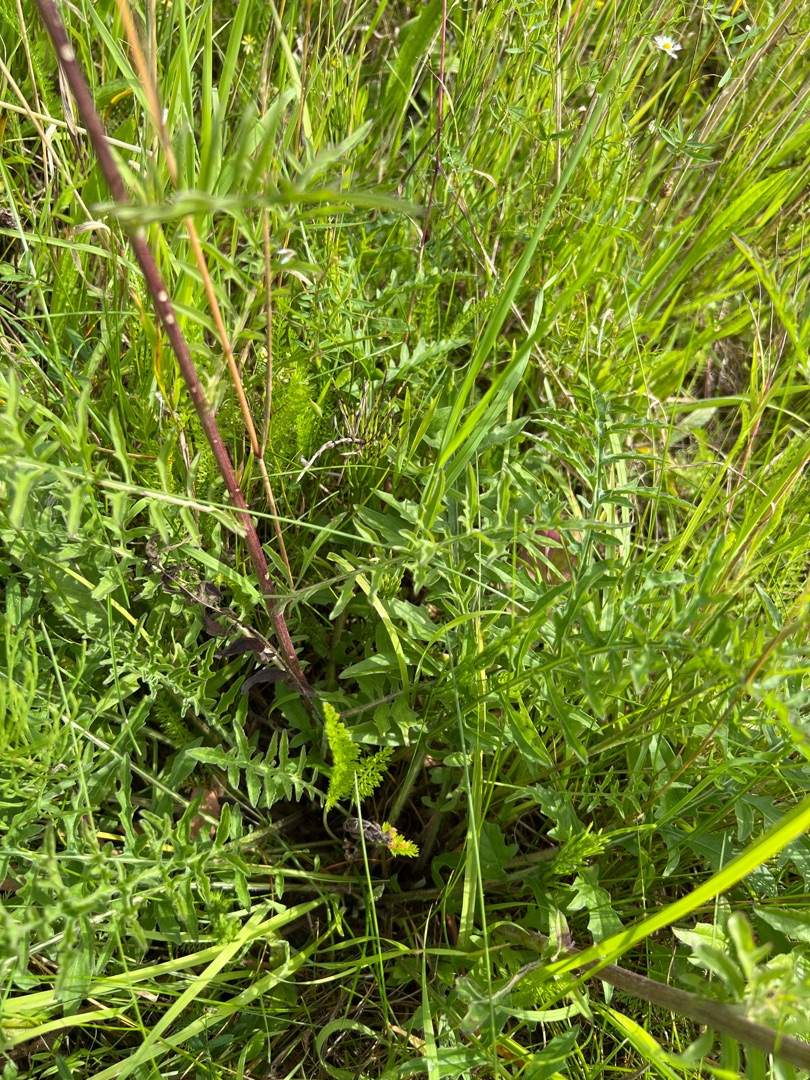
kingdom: Plantae
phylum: Tracheophyta
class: Magnoliopsida
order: Asterales
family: Asteraceae
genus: Centaurea
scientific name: Centaurea scabiosa
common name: Stor knopurt
